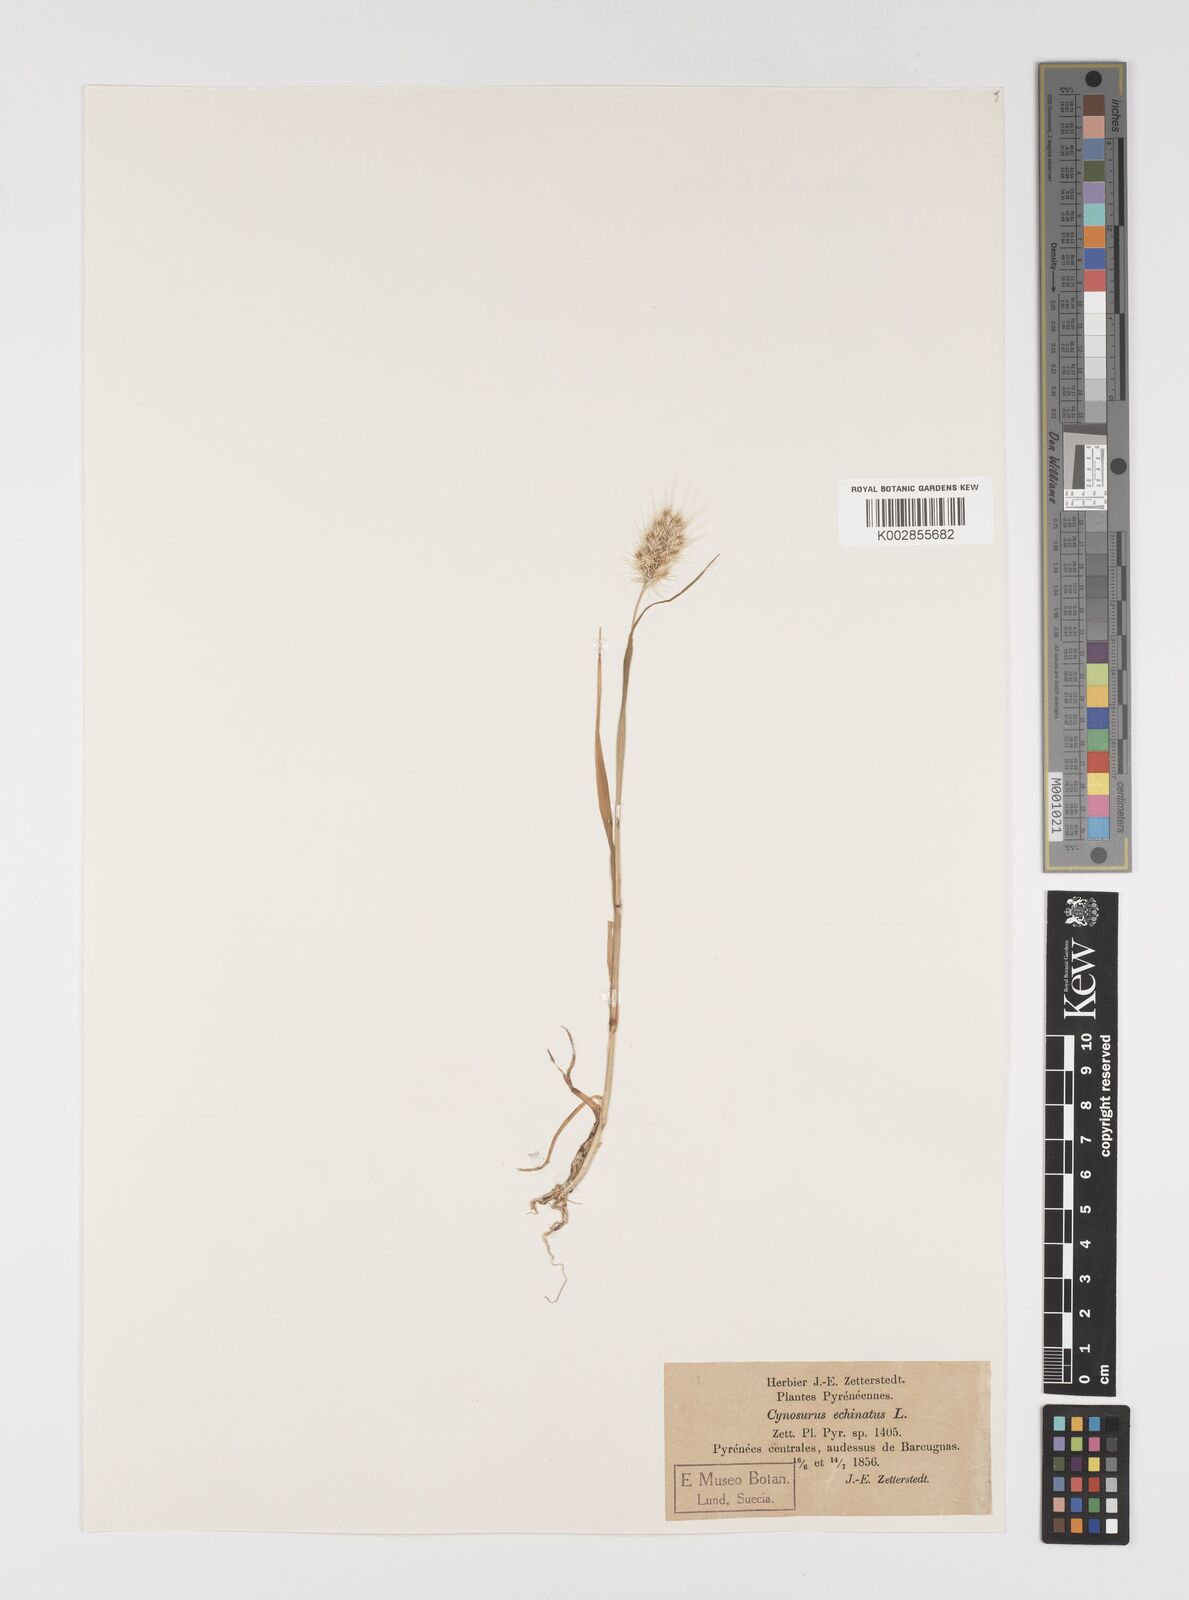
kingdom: Plantae
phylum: Tracheophyta
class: Liliopsida
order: Poales
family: Poaceae
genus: Cynosurus
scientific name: Cynosurus echinatus
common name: Rough dog's-tail
